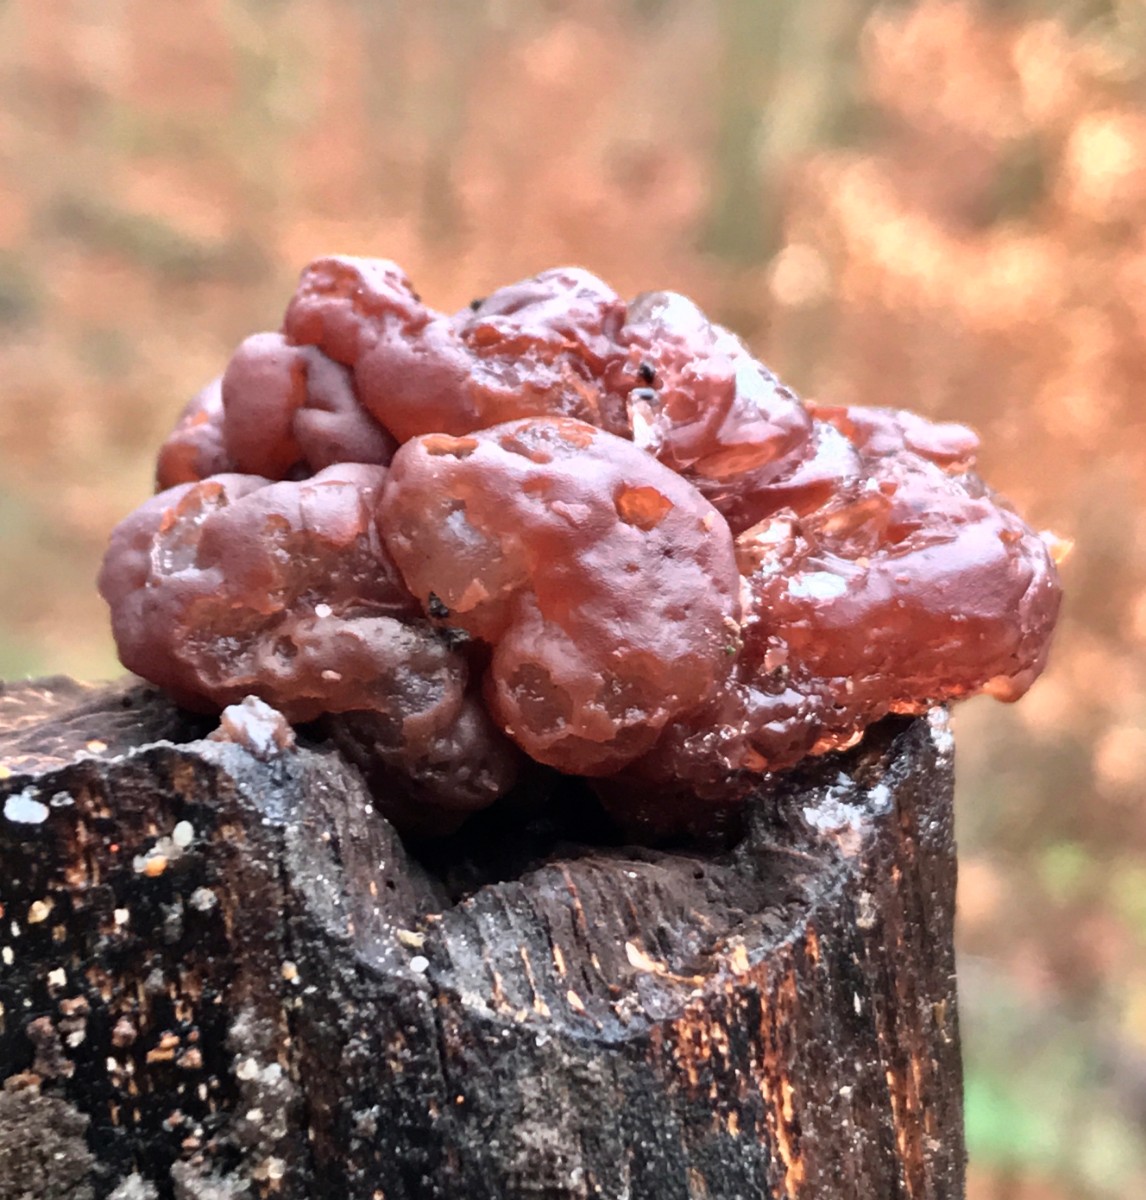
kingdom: Fungi
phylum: Ascomycota
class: Leotiomycetes
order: Helotiales
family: Gelatinodiscaceae
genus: Ascotremella
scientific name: Ascotremella faginea
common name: hjerne-bævreskive
